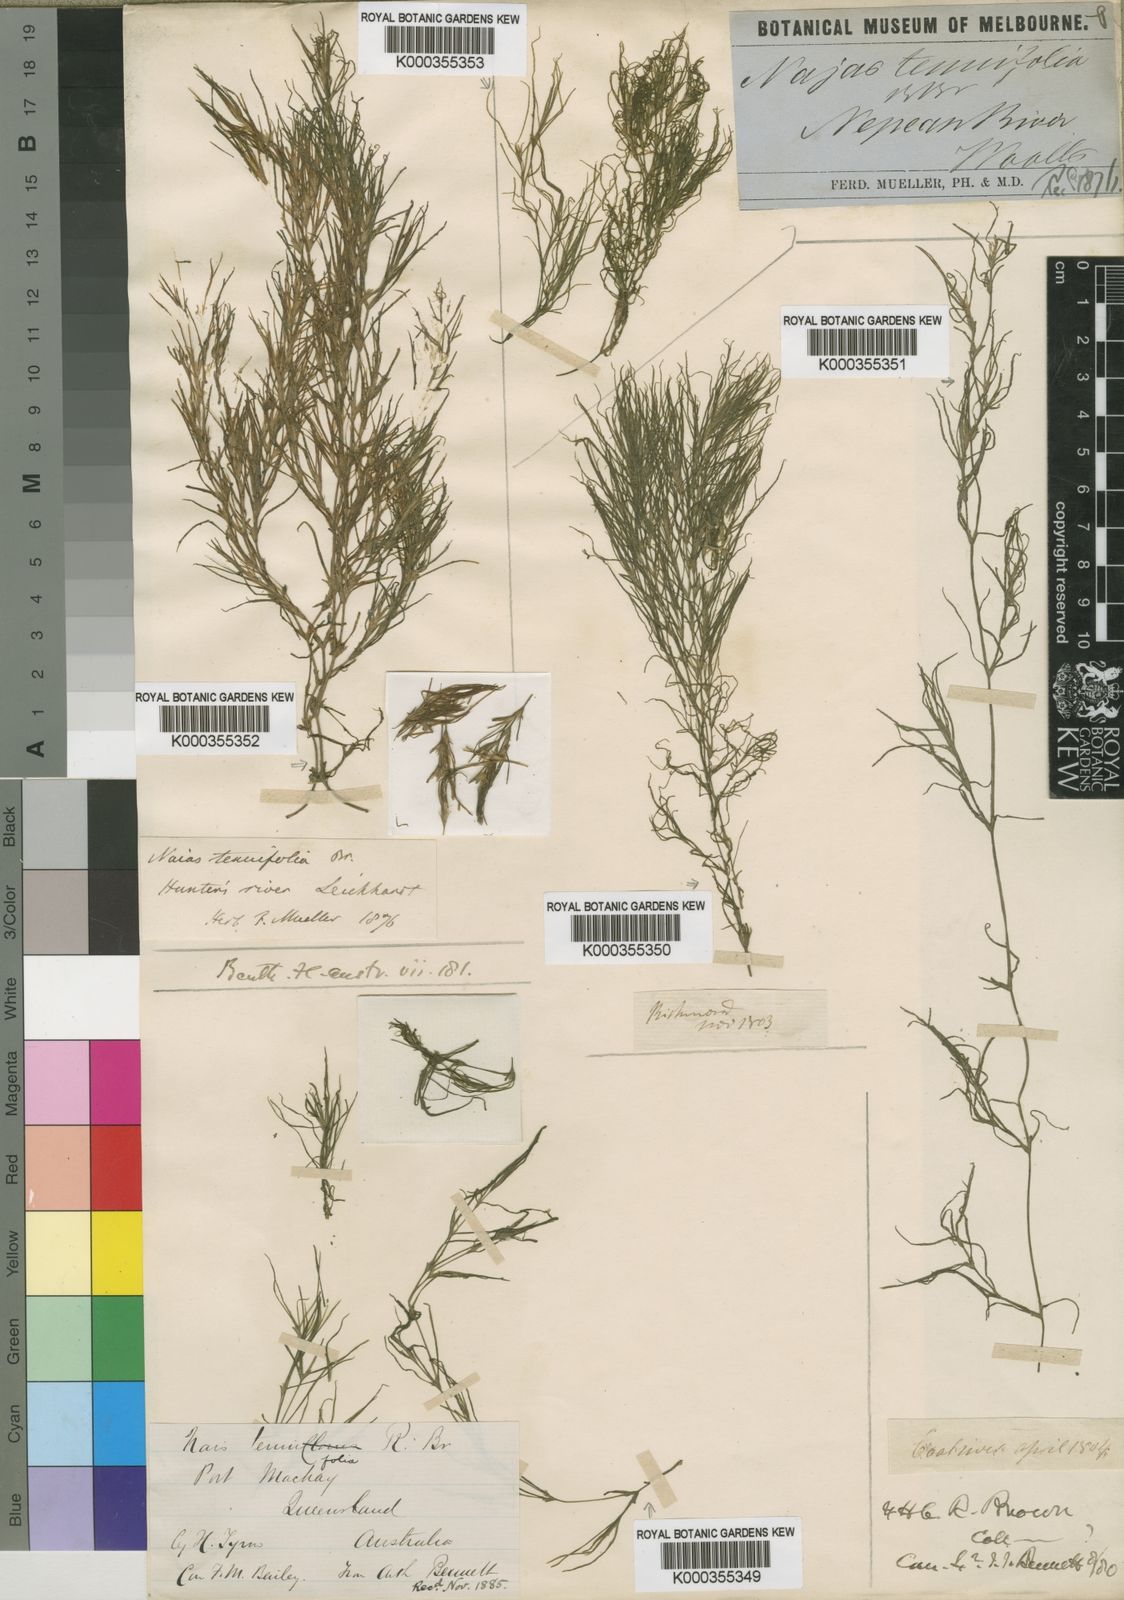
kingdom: Plantae
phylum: Tracheophyta
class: Liliopsida
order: Alismatales
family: Hydrocharitaceae
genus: Najas
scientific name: Najas tenuifolia
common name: Thin-leaved naiad
